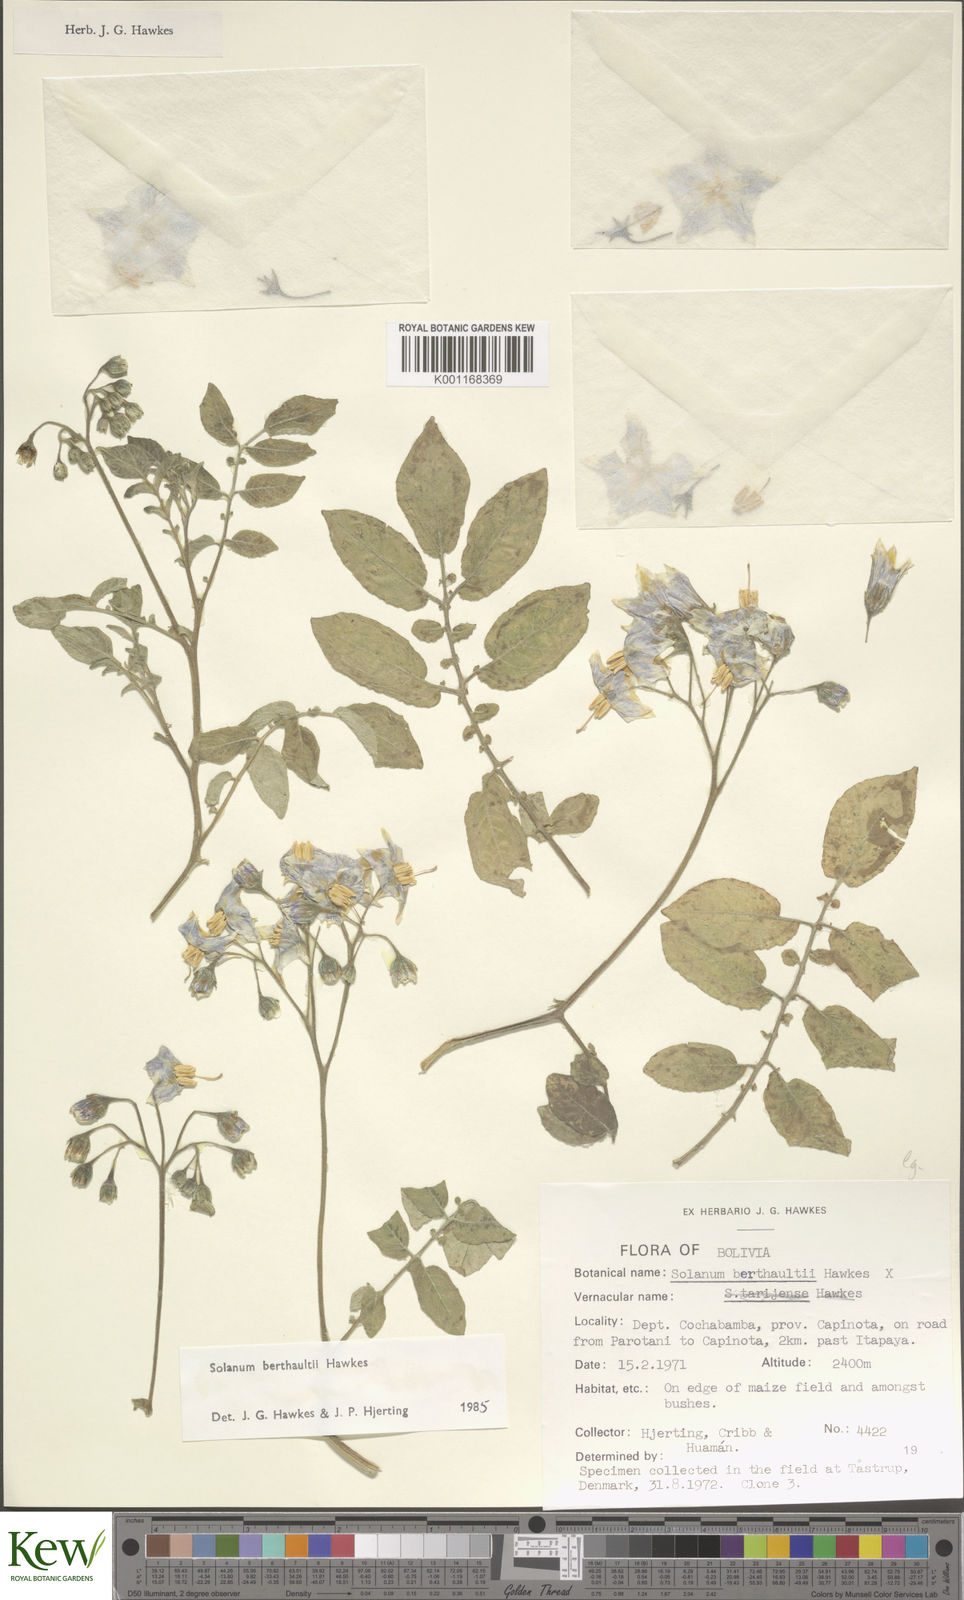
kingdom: Plantae
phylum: Tracheophyta
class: Magnoliopsida
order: Solanales
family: Solanaceae
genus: Solanum
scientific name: Solanum berthaultii
